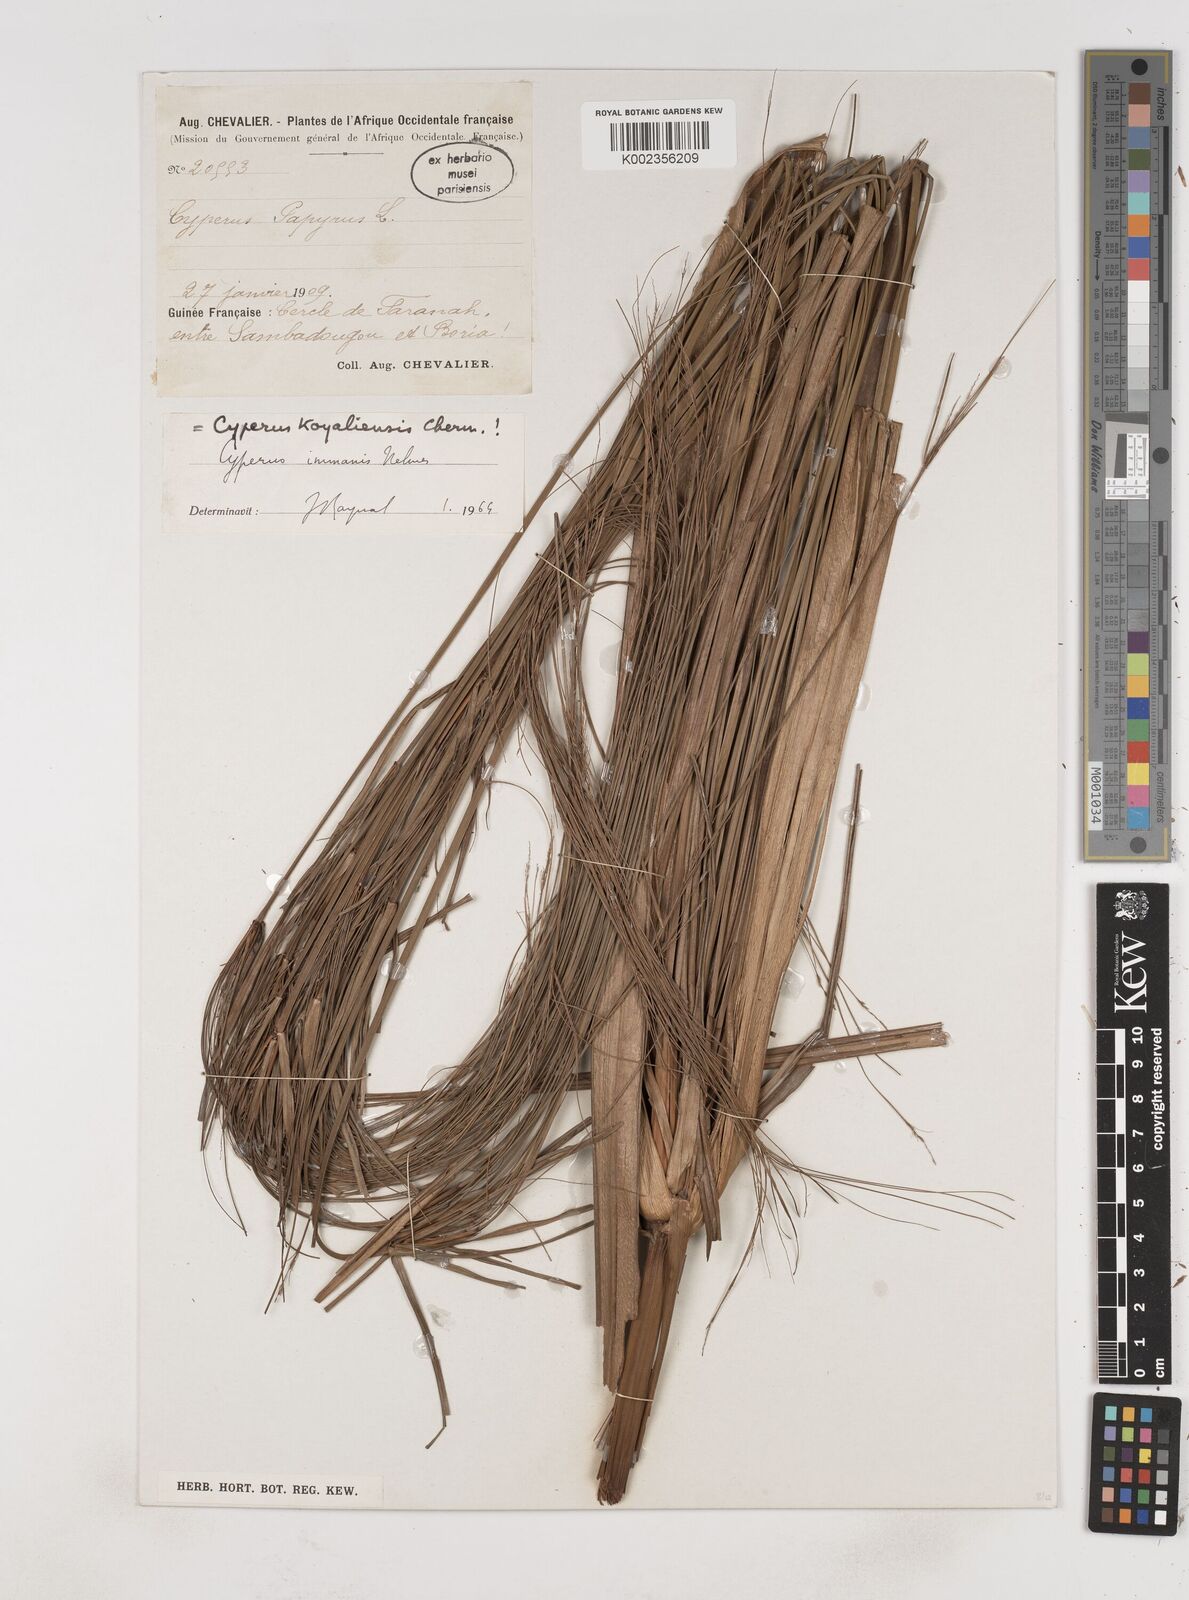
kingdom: Plantae
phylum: Tracheophyta
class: Liliopsida
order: Poales
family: Cyperaceae
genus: Cyperus
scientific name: Cyperus koyaliensis
